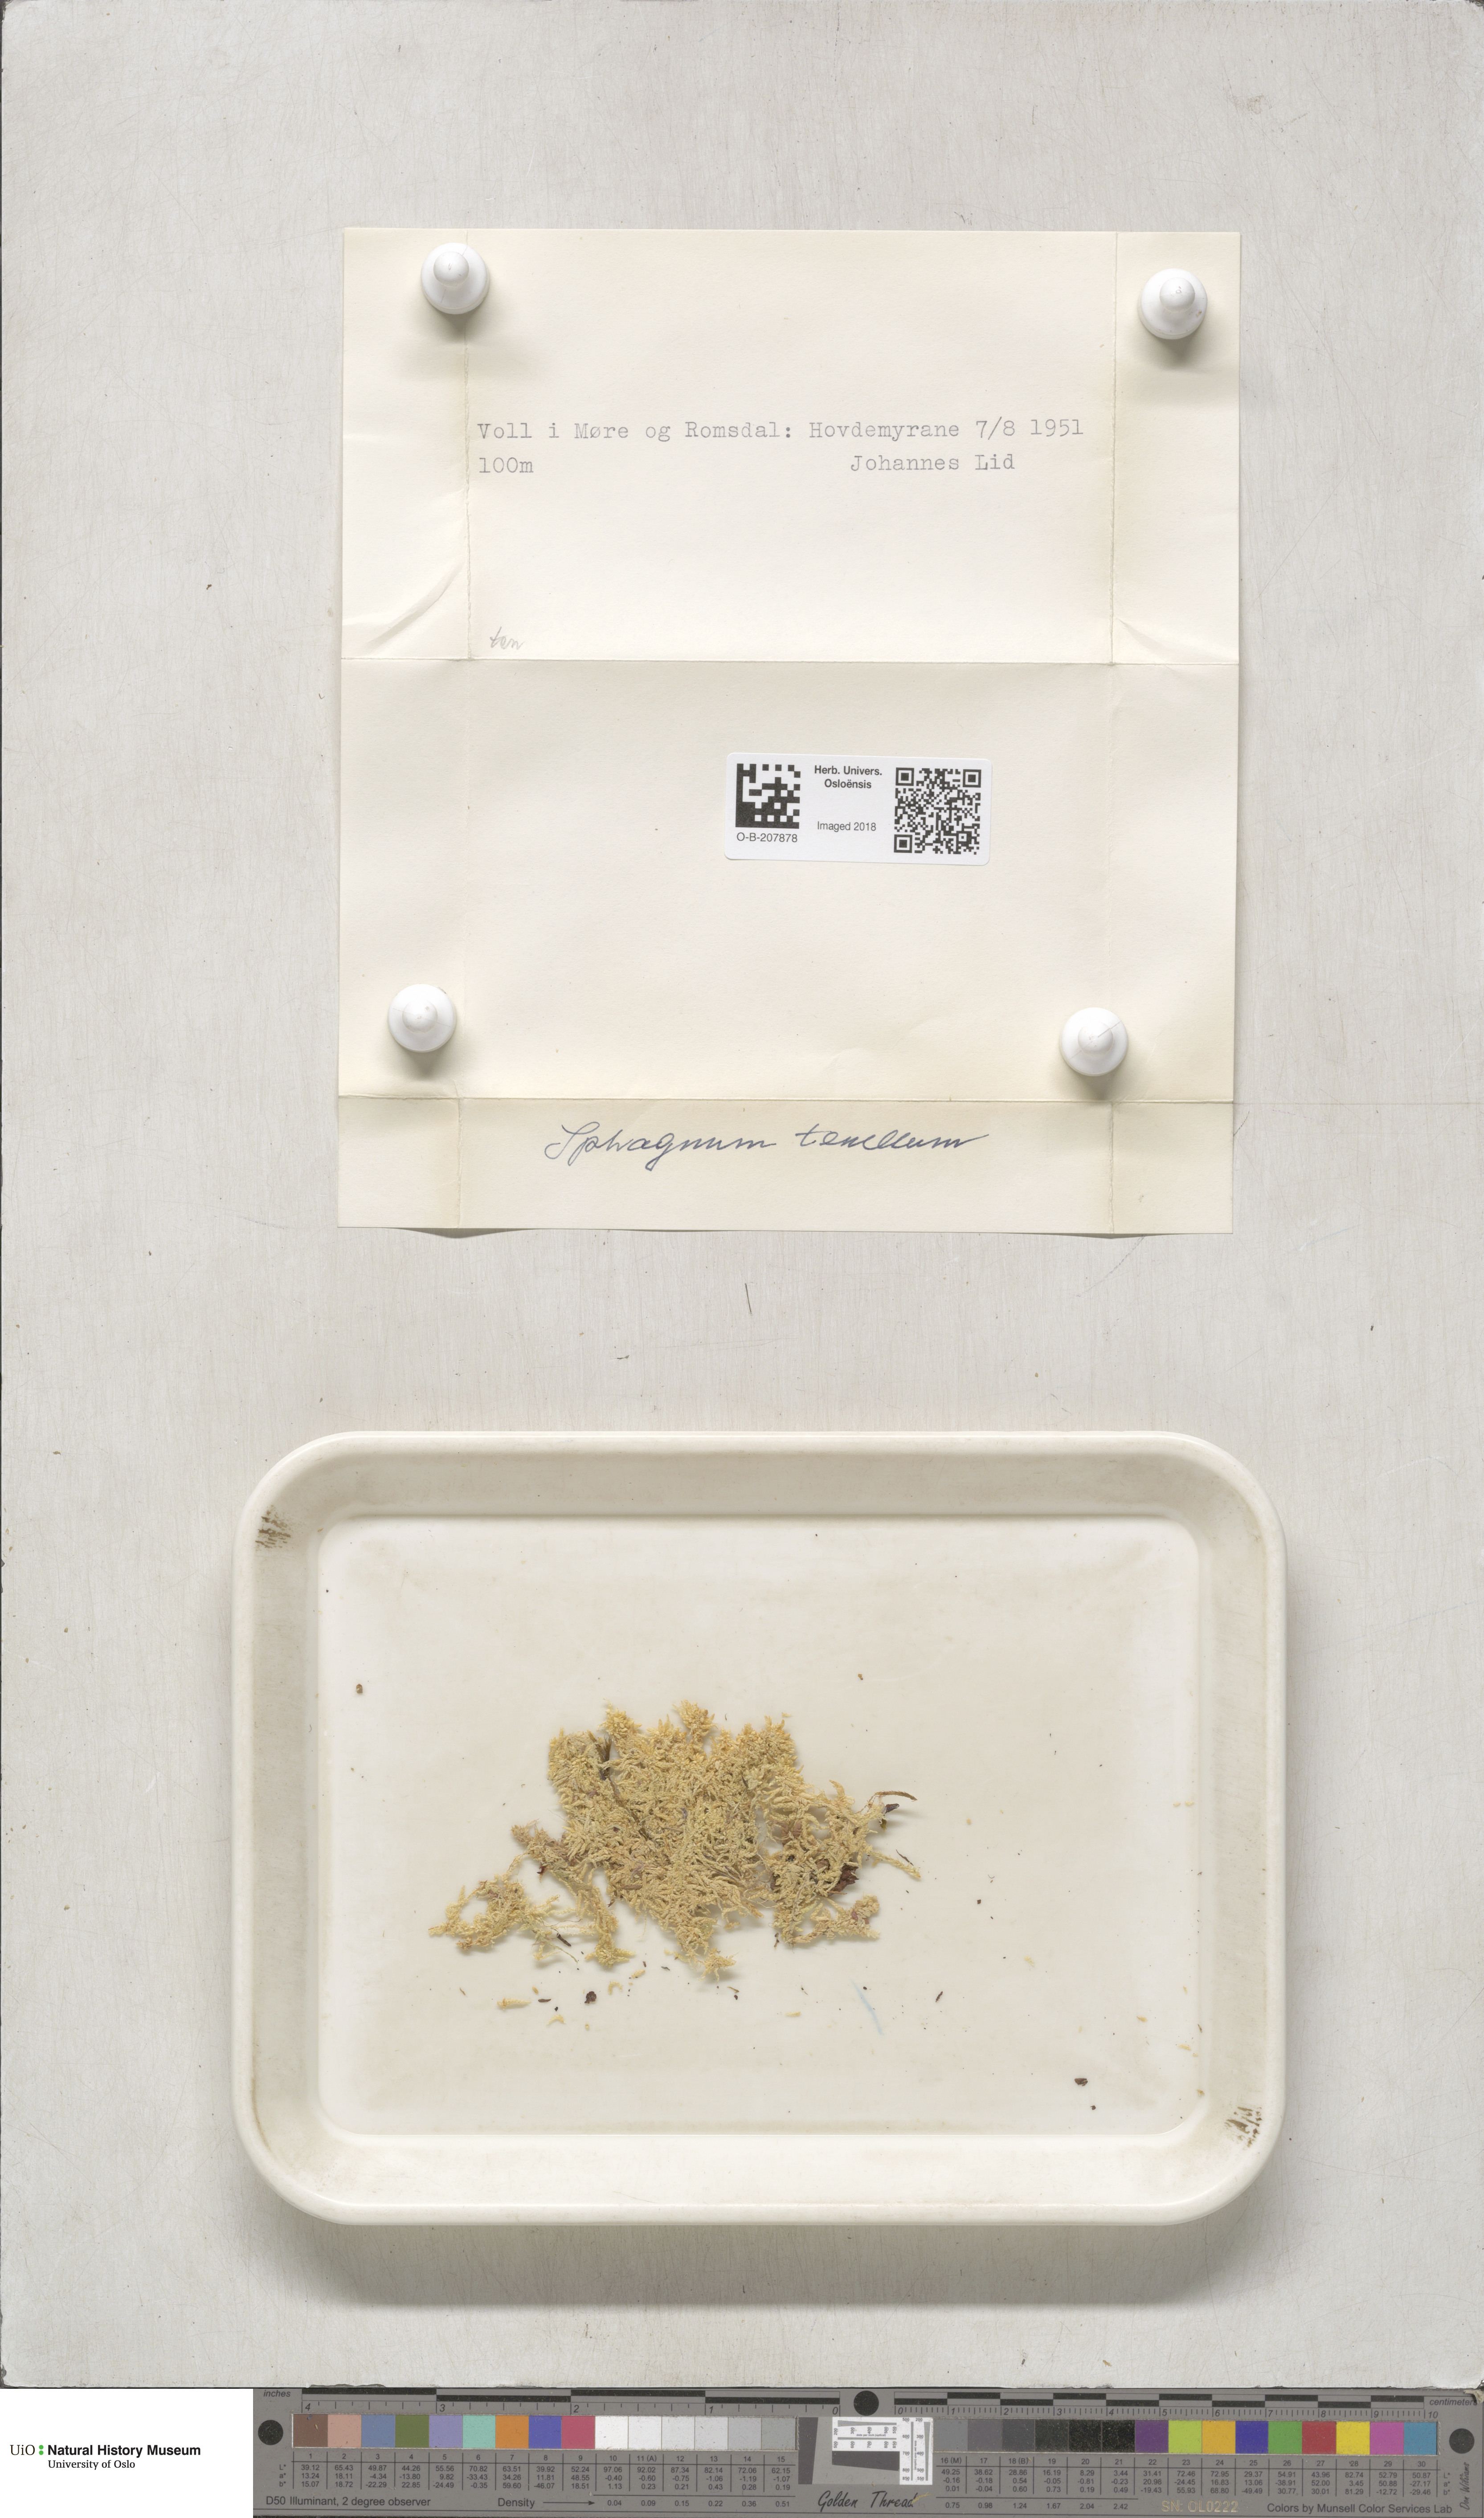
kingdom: Plantae
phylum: Bryophyta
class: Sphagnopsida
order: Sphagnales
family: Sphagnaceae
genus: Sphagnum
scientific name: Sphagnum tenellum
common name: Soft bog-moss
